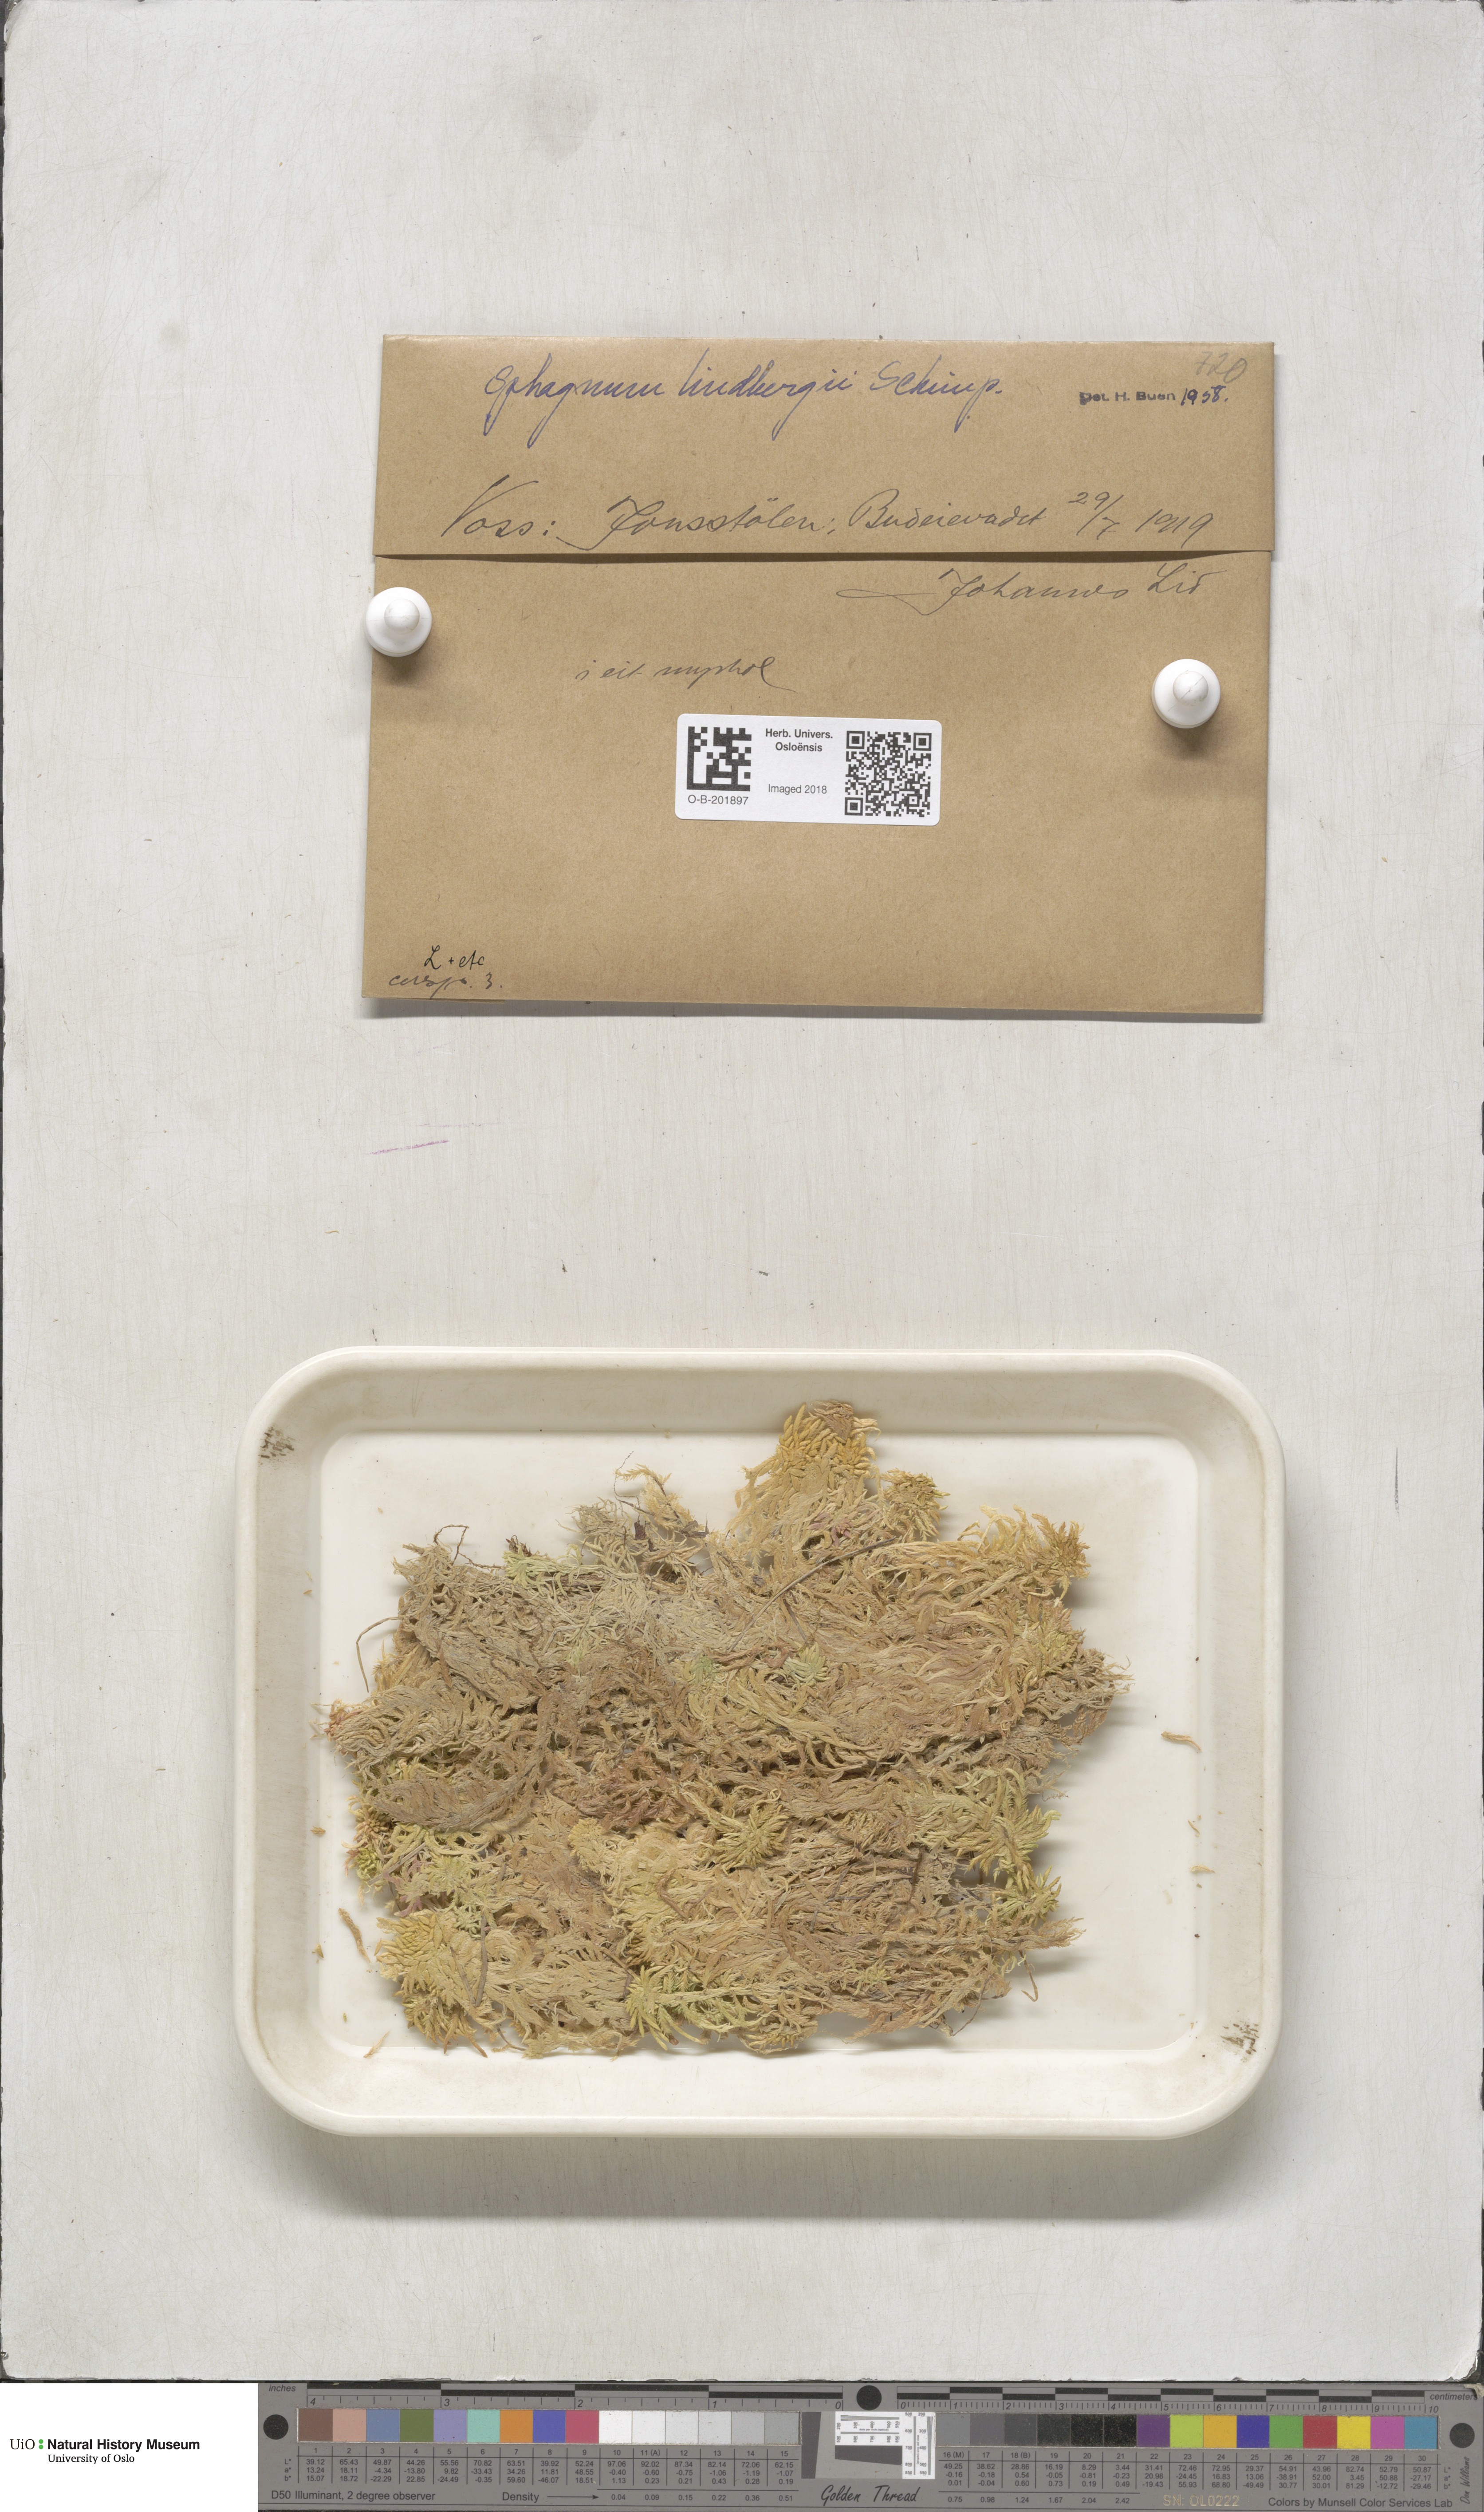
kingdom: Plantae
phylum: Bryophyta
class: Sphagnopsida
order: Sphagnales
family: Sphagnaceae
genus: Sphagnum
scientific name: Sphagnum lindbergii
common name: Lindberg's peat moss
